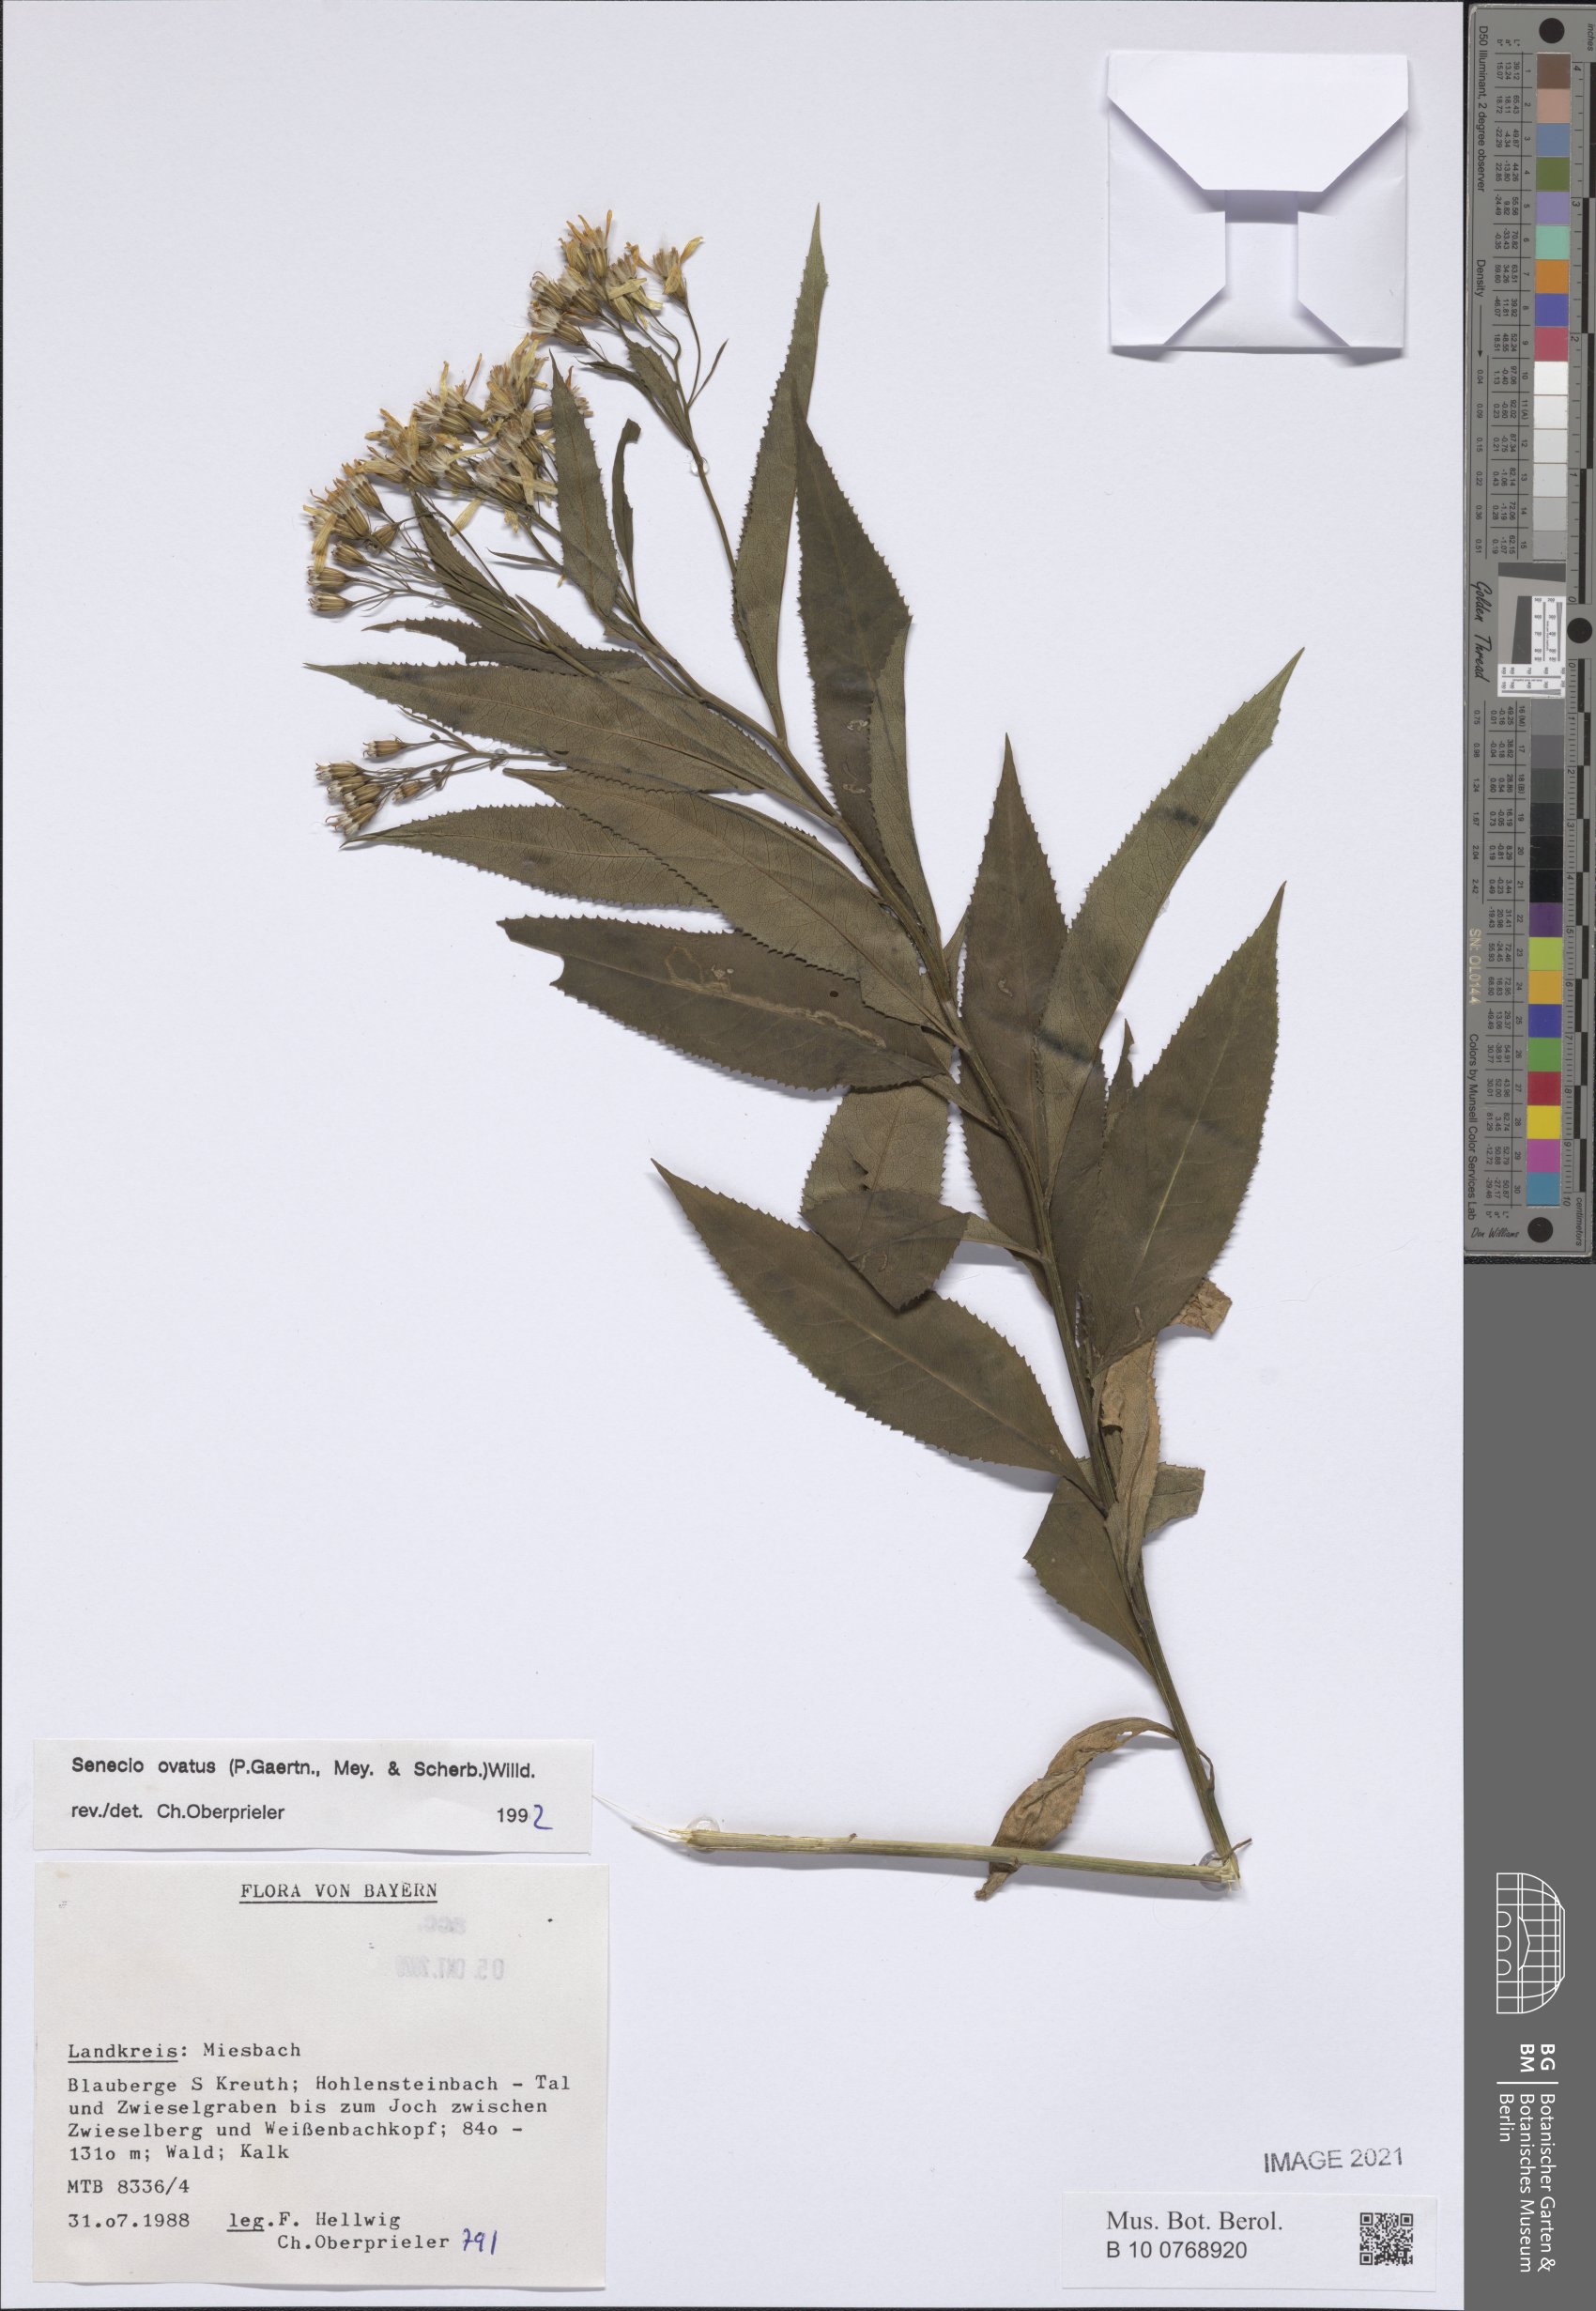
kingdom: Plantae
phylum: Tracheophyta
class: Magnoliopsida
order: Asterales
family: Asteraceae
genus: Senecio
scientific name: Senecio ovatus
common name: Wood ragwort
